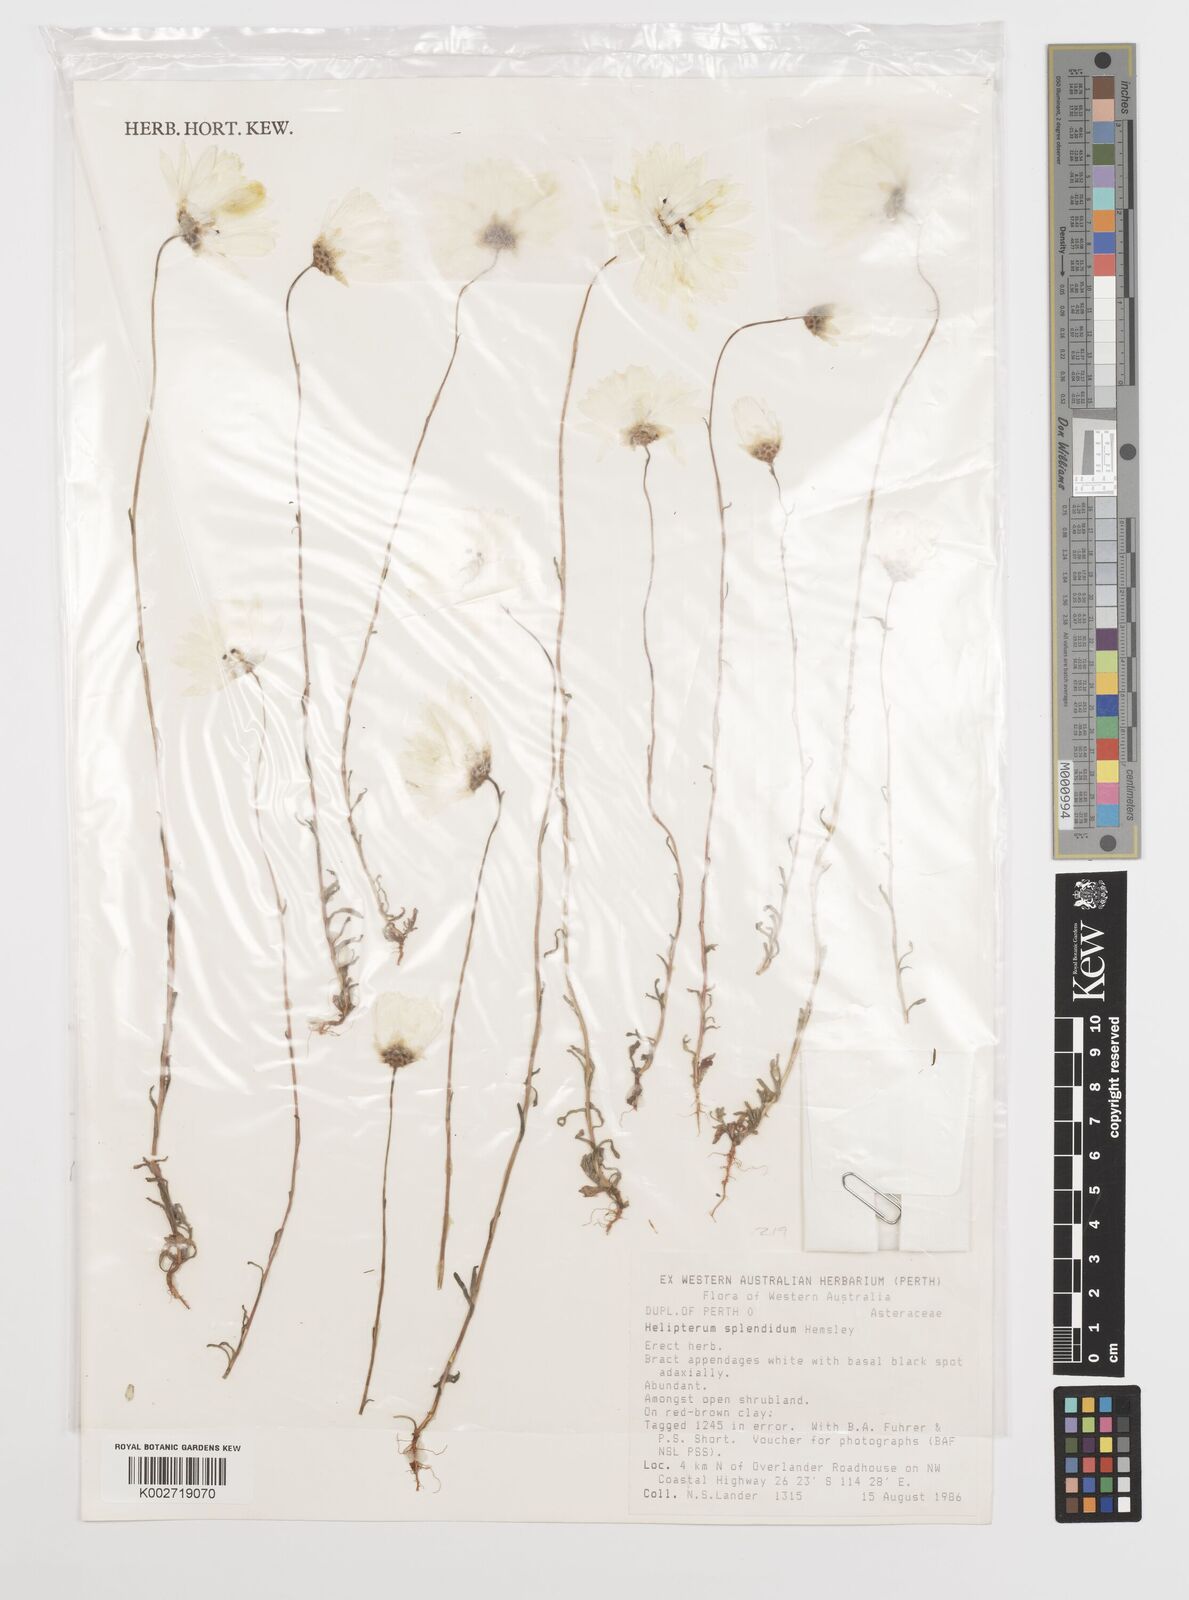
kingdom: Plantae
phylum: Tracheophyta
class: Magnoliopsida
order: Asterales
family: Asteraceae
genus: Rhodanthe
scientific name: Rhodanthe chlorocephala
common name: Rosy sunray
